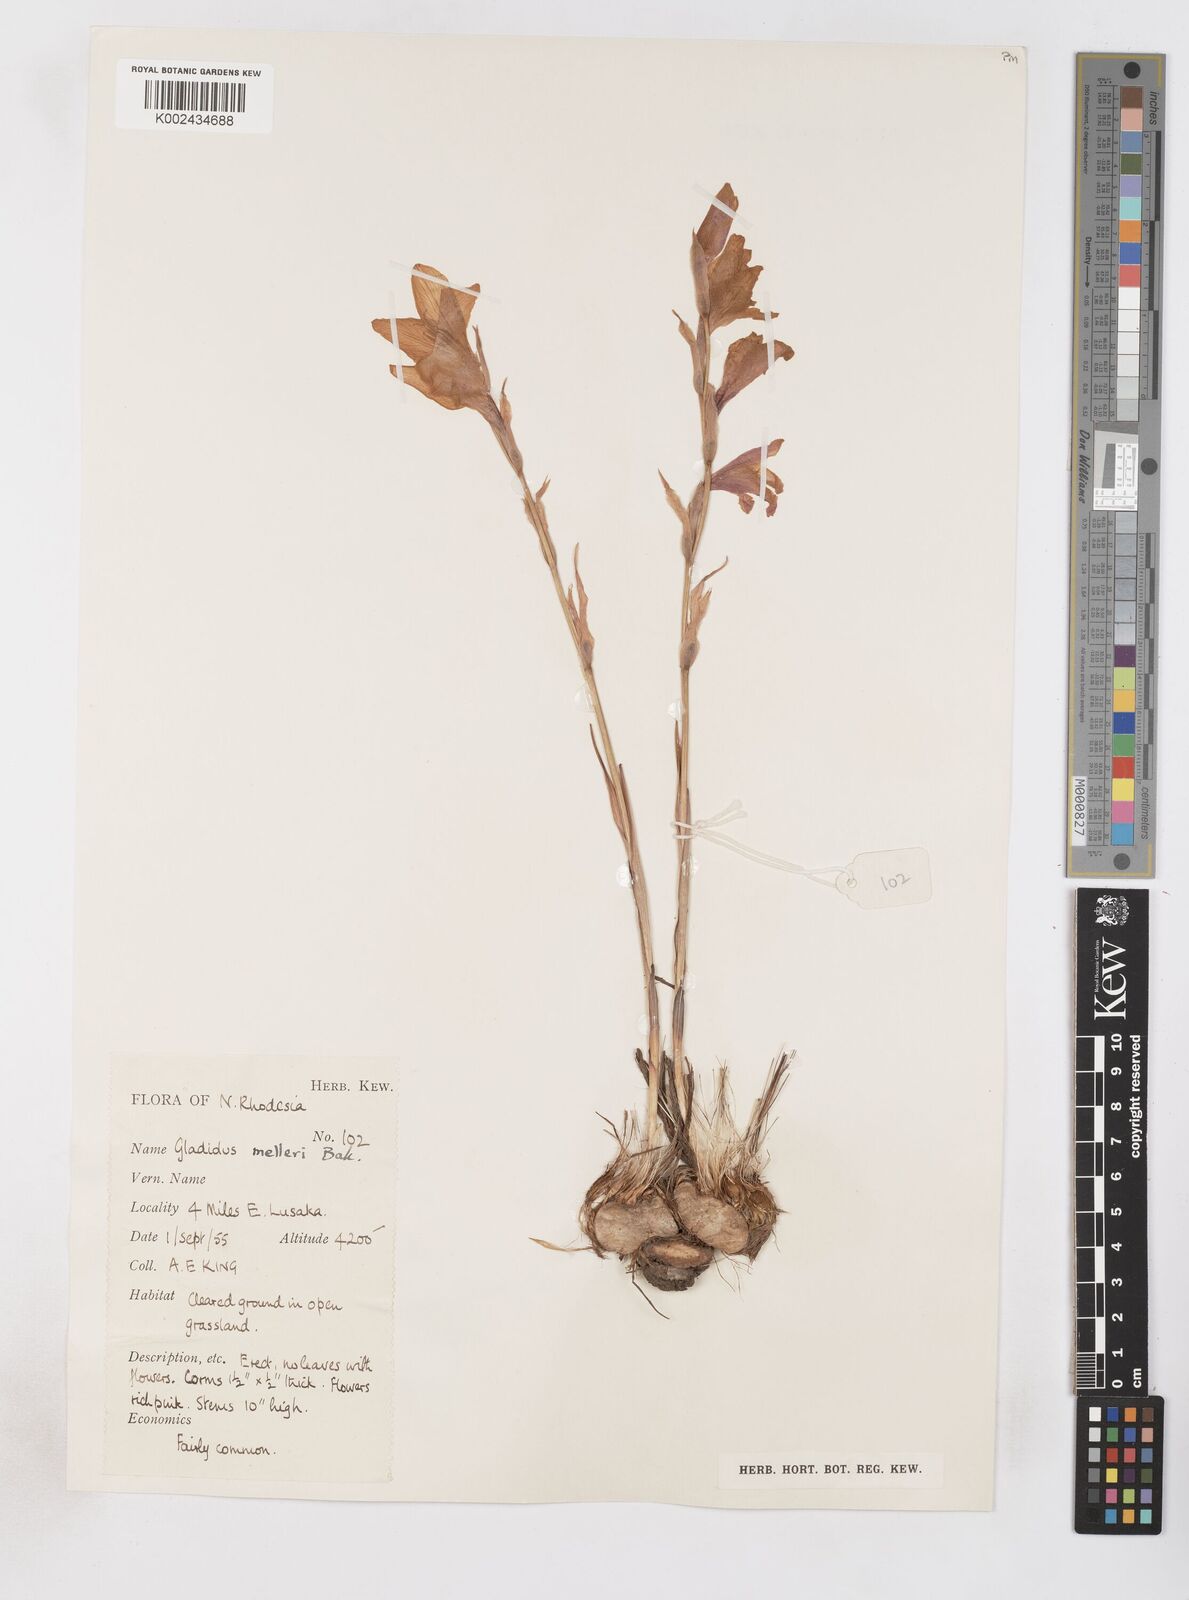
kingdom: Plantae
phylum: Tracheophyta
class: Liliopsida
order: Asparagales
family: Iridaceae
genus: Gladiolus
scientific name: Gladiolus melleri
